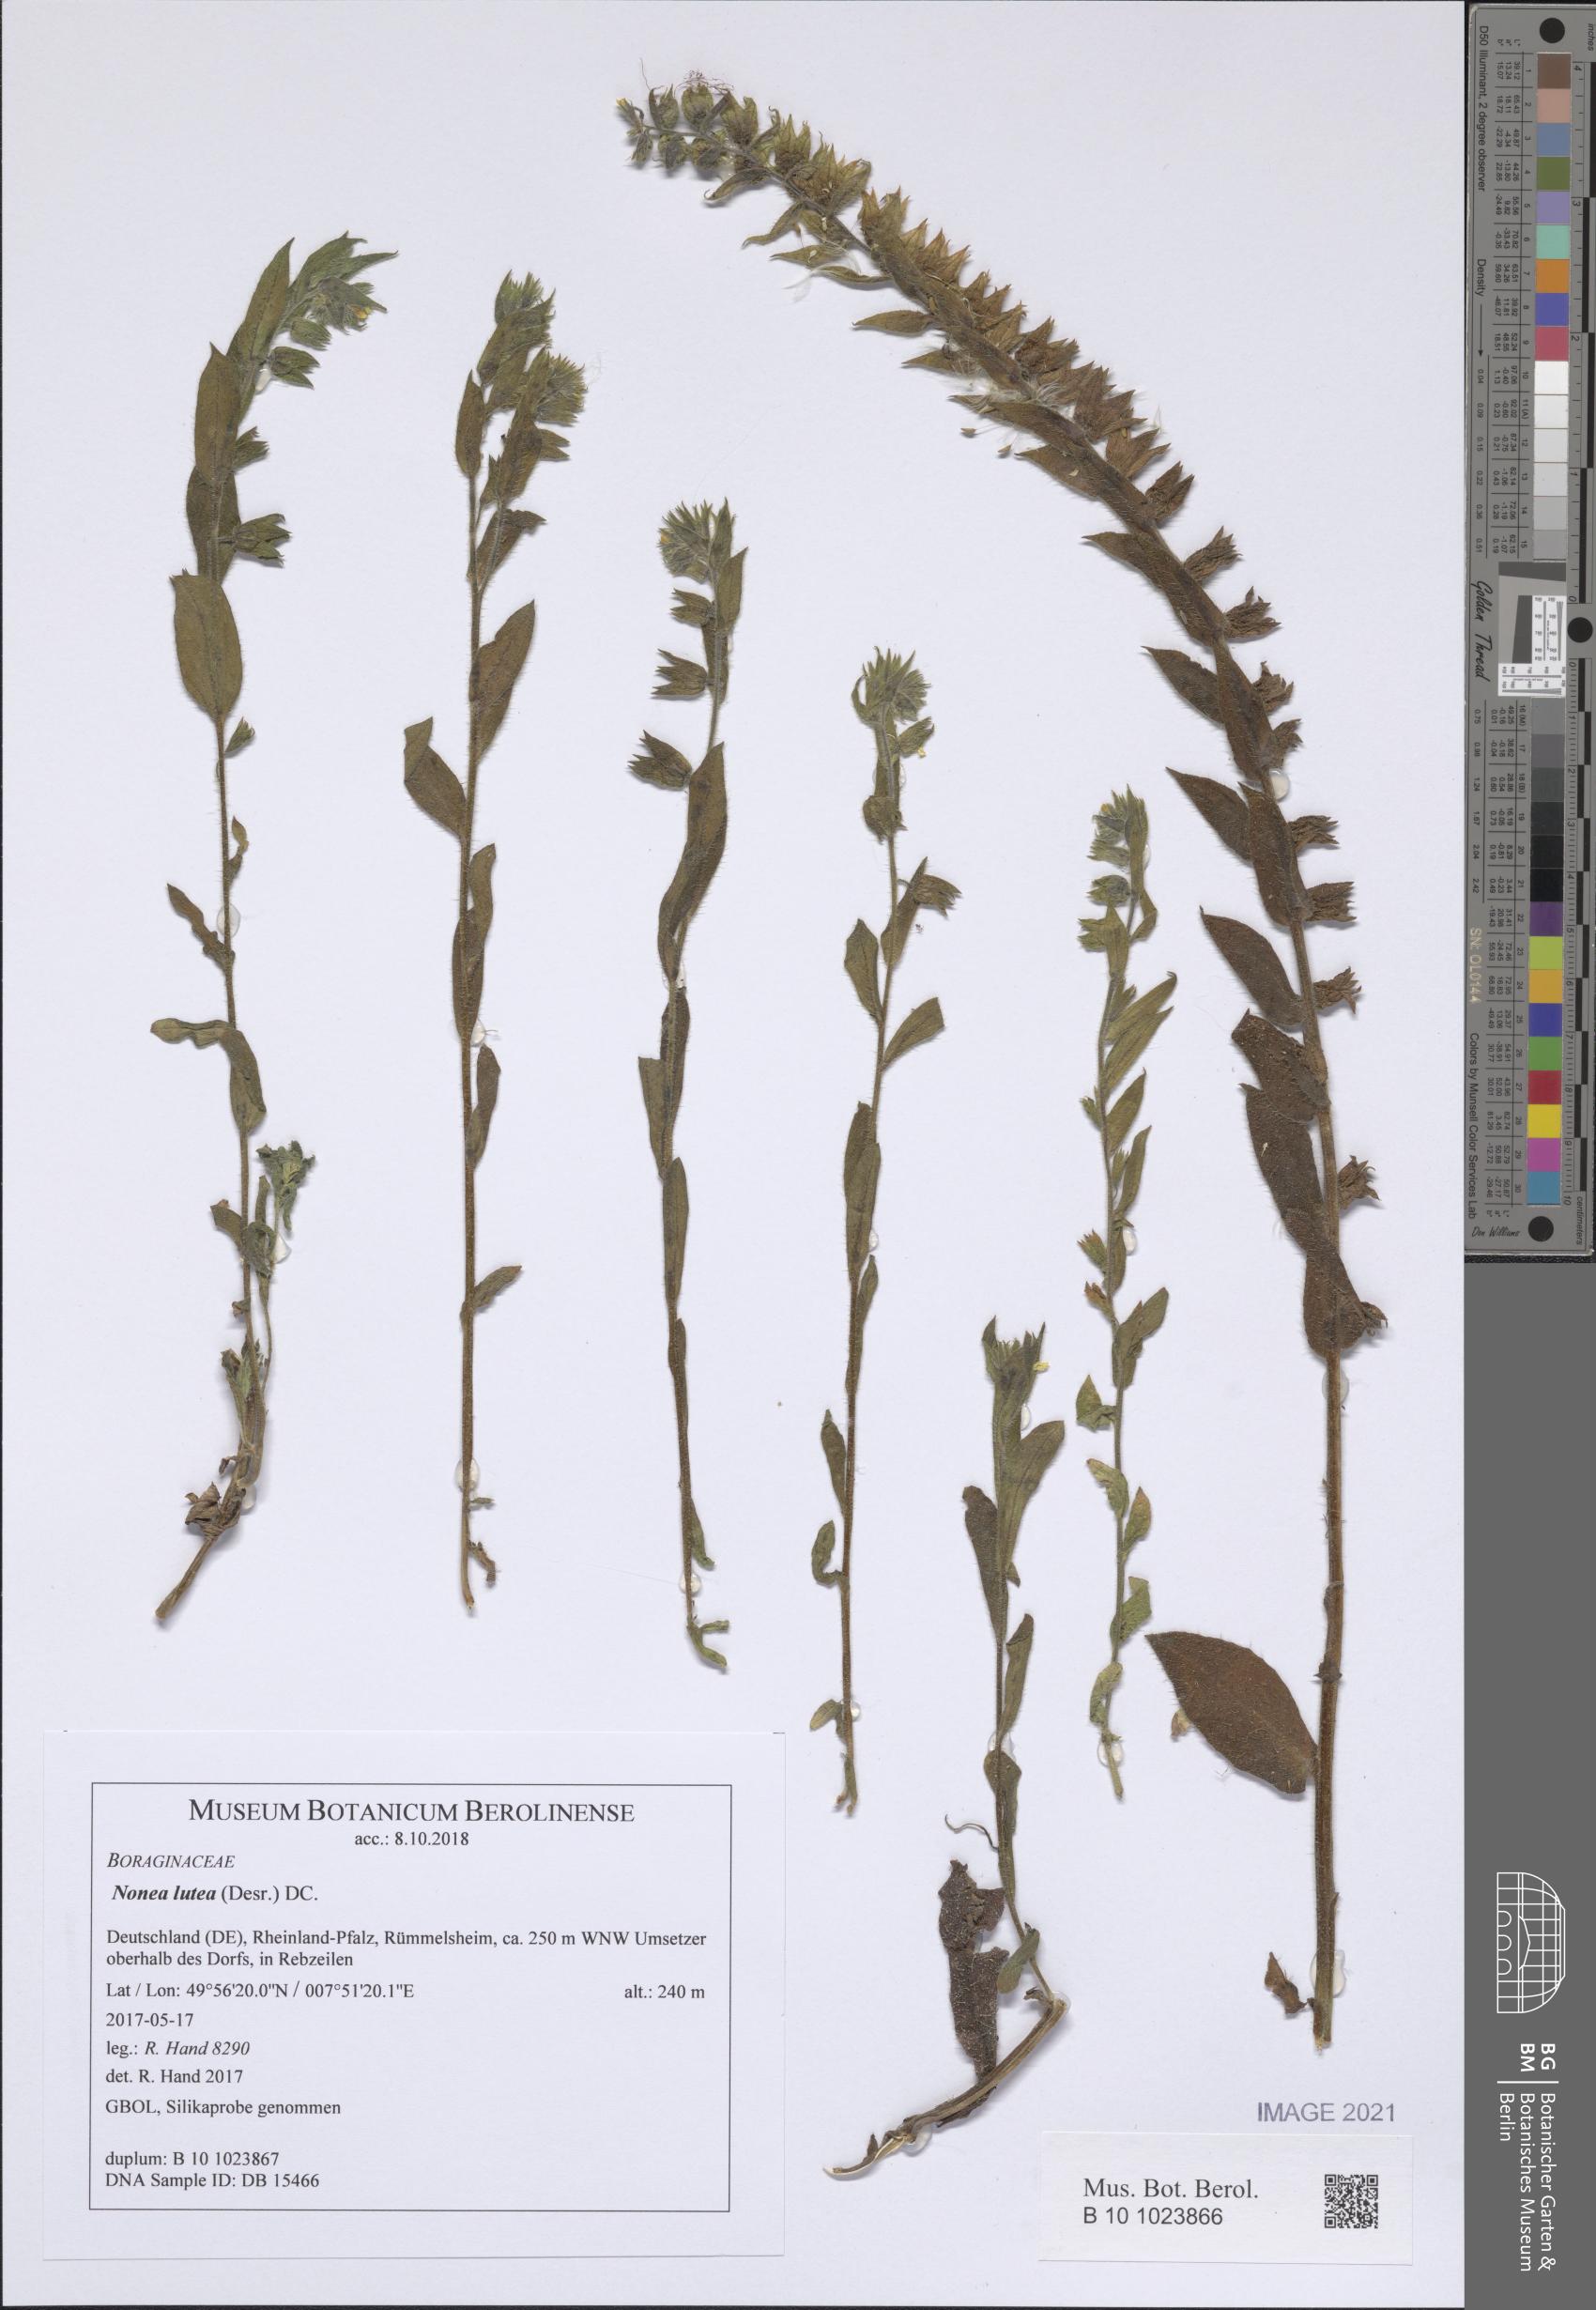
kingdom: Plantae
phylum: Tracheophyta
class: Magnoliopsida
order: Boraginales
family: Boraginaceae
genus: Nonea
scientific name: Nonea lutea
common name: Yellow nonea
